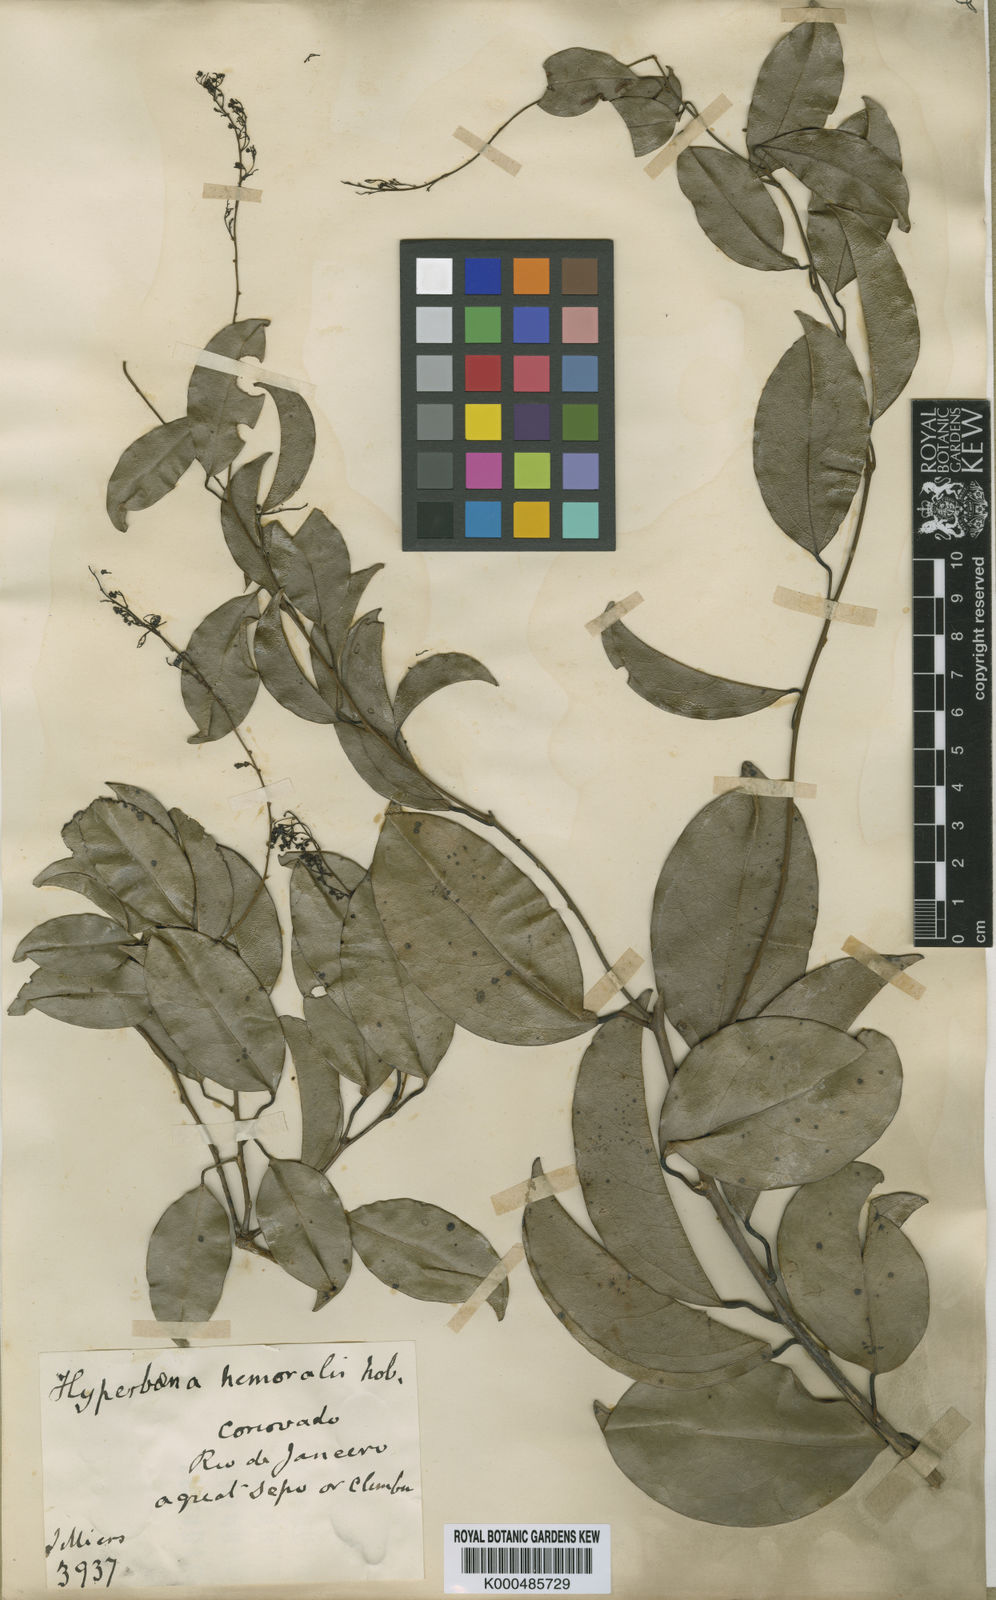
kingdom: Plantae
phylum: Tracheophyta
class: Magnoliopsida
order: Ranunculales
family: Menispermaceae
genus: Hyperbaena
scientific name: Hyperbaena domingensis
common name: Forest snakevine
